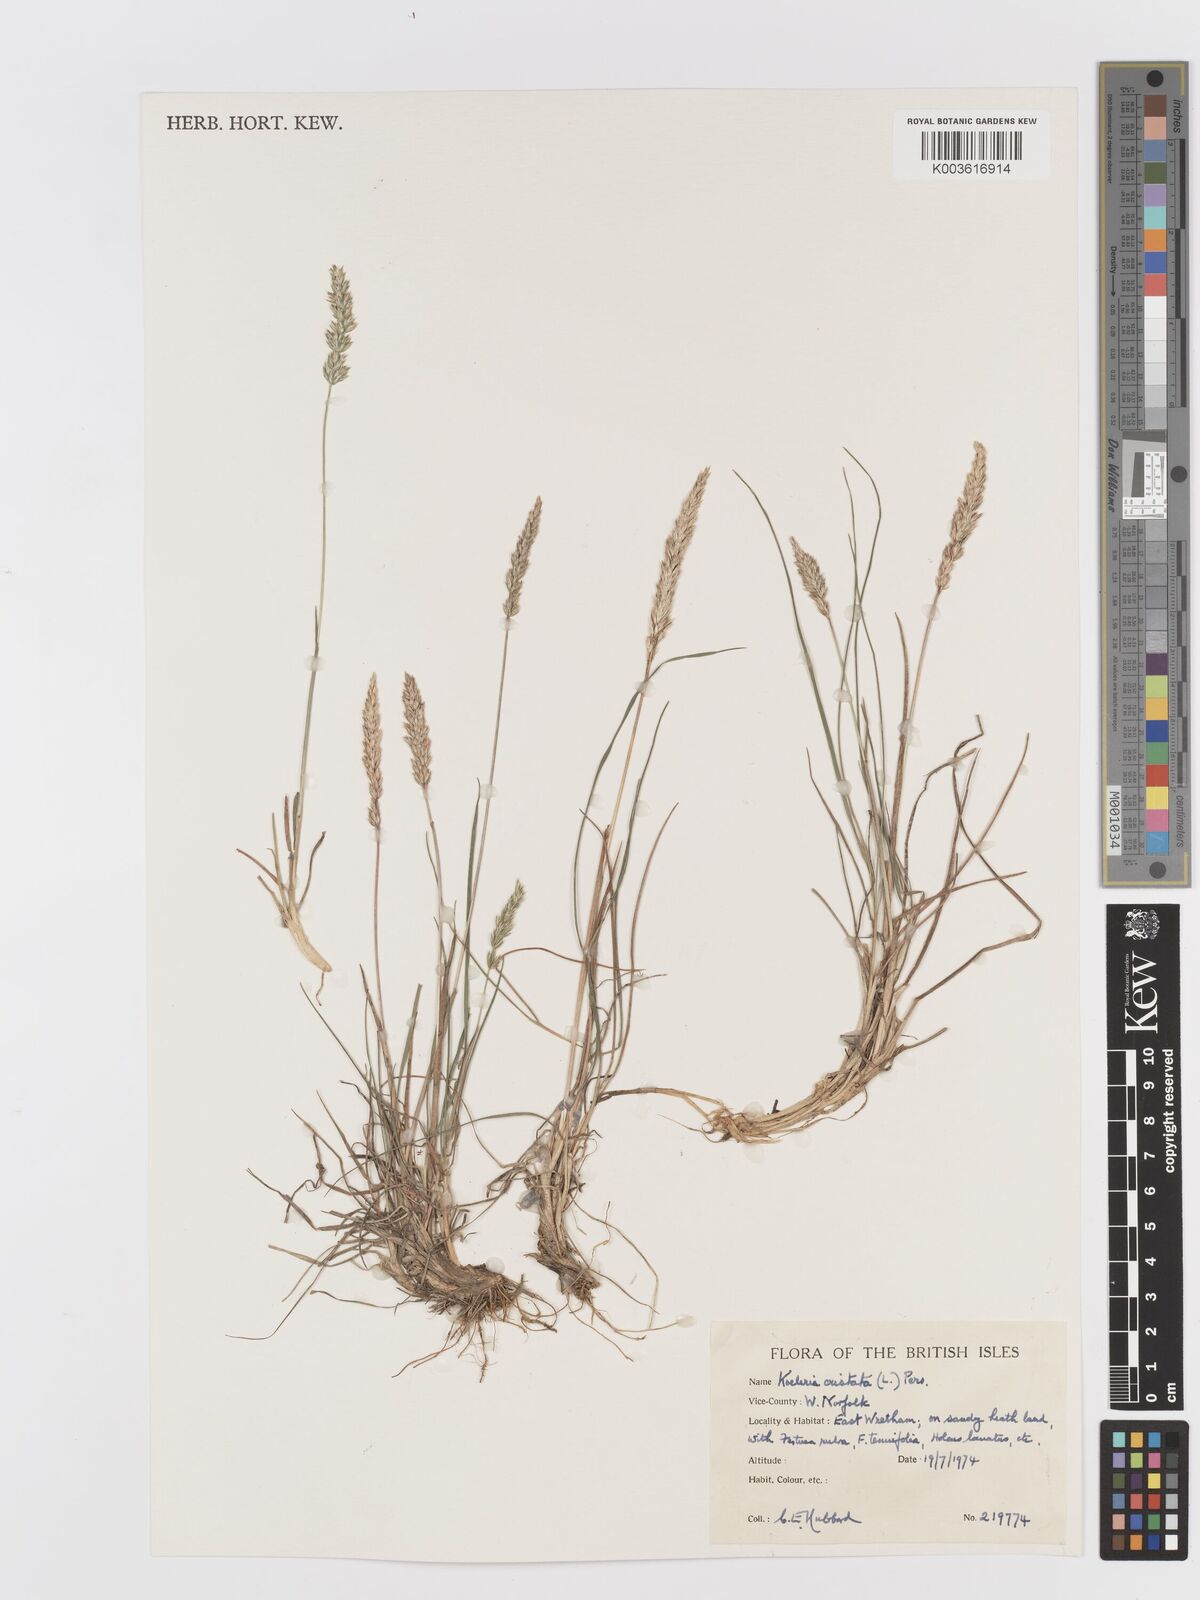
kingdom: Plantae
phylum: Tracheophyta
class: Liliopsida
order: Poales
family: Poaceae
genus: Koeleria
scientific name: Koeleria macrantha
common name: Crested hair-grass
